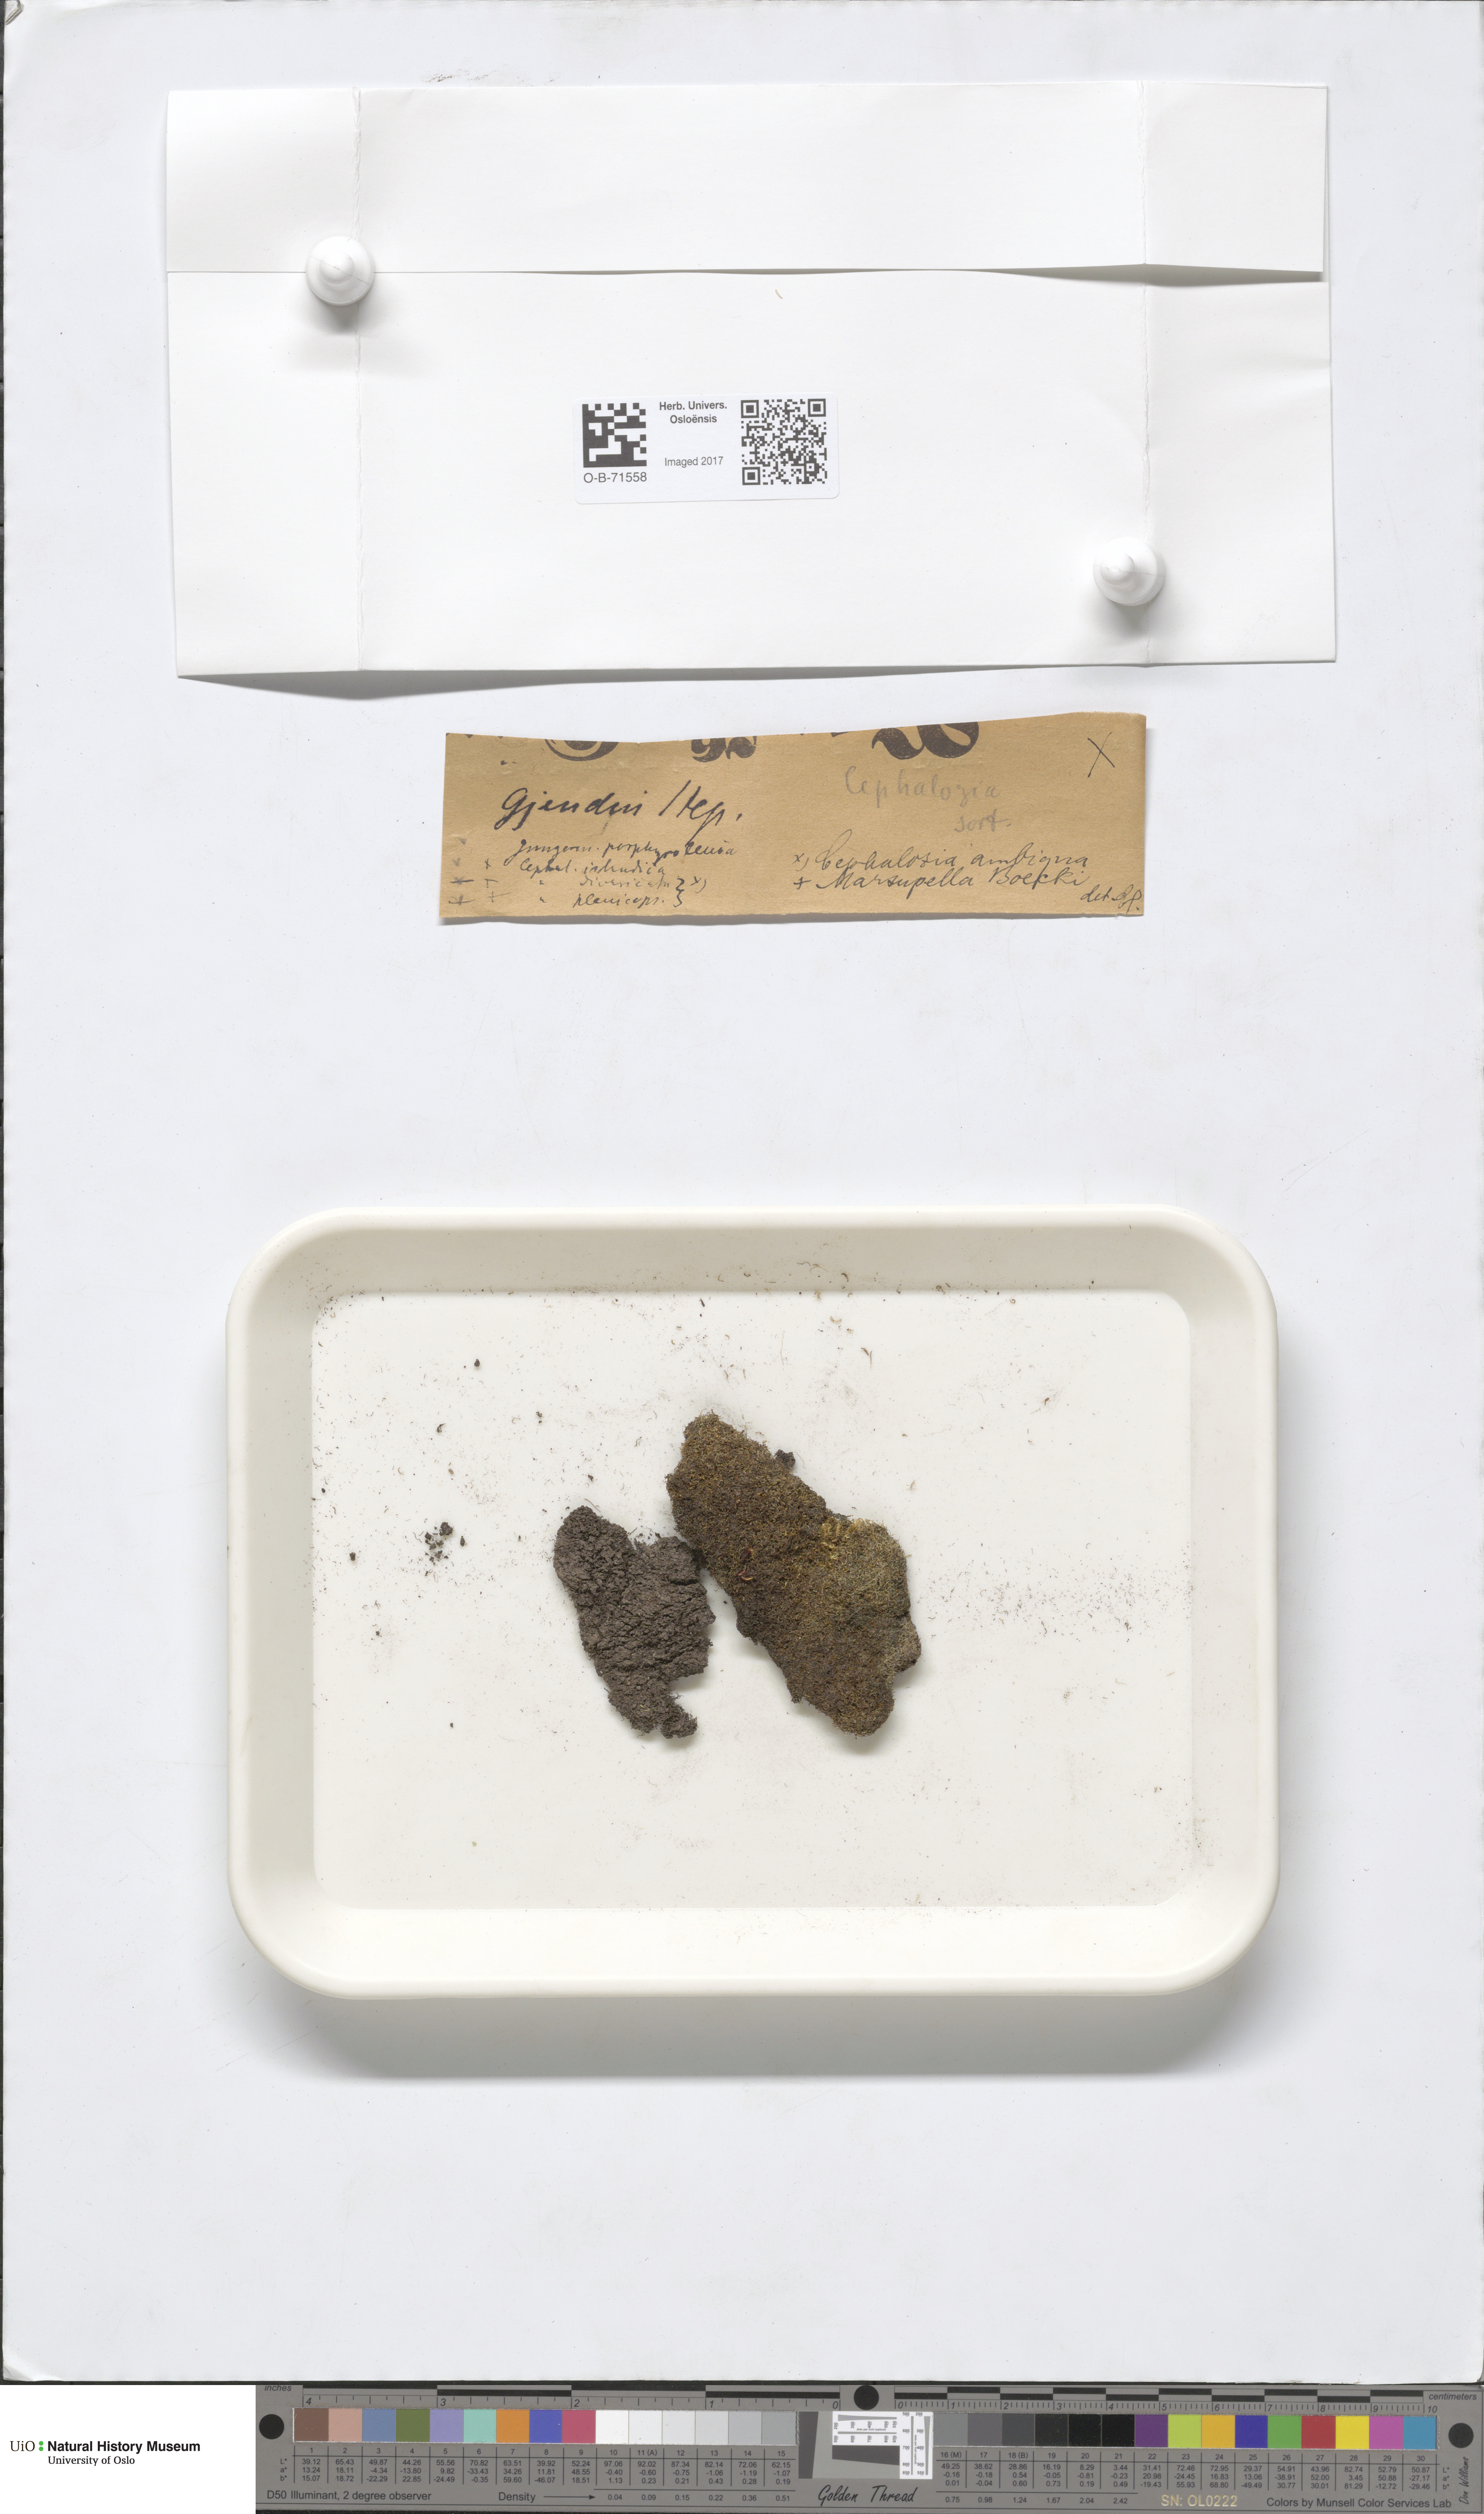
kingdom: Plantae
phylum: Marchantiophyta
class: Jungermanniopsida
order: Jungermanniales
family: Cephaloziaceae
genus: Cephalozia
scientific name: Cephalozia bicuspidata
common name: Two-horned pincerwort
